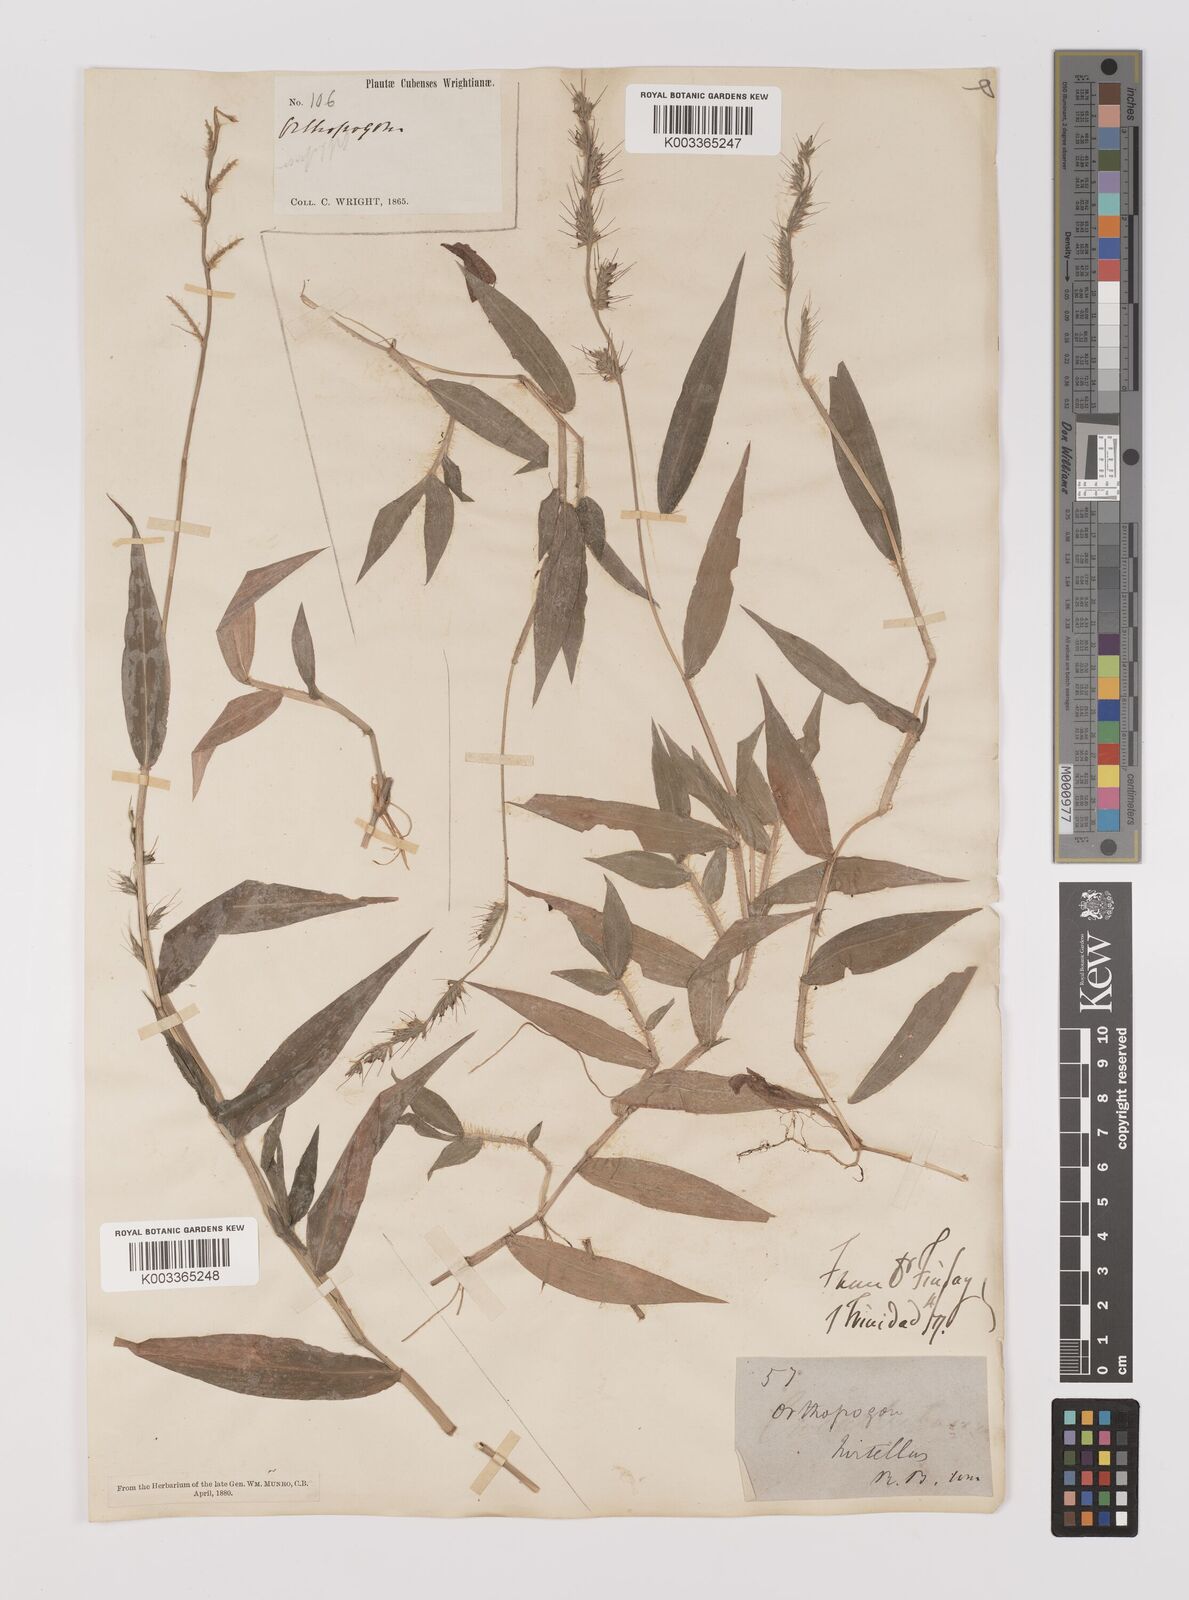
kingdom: Plantae
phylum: Tracheophyta
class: Liliopsida
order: Poales
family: Poaceae
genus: Oplismenus
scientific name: Oplismenus hirtellus
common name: Basketgrass
